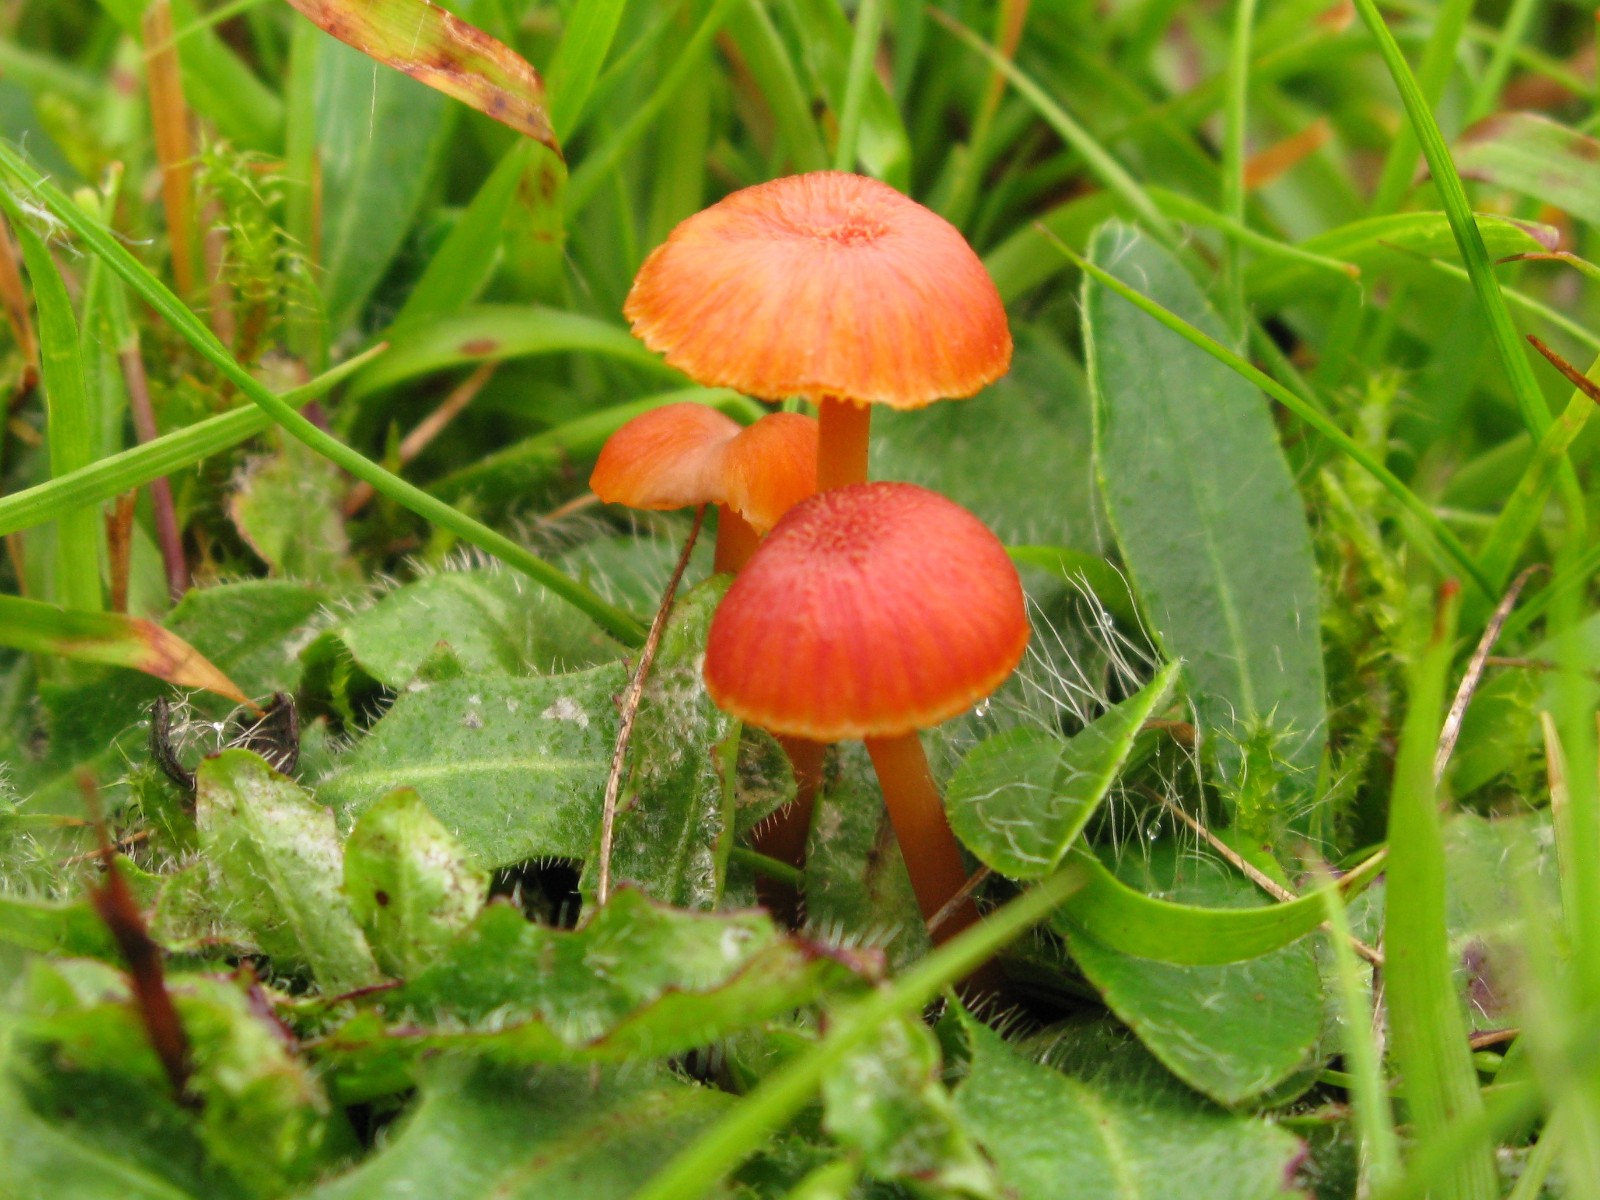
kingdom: Fungi
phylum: Basidiomycota
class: Agaricomycetes
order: Agaricales
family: Hygrophoraceae
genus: Hygrocybe
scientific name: Hygrocybe miniata
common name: mønje-vokshat
